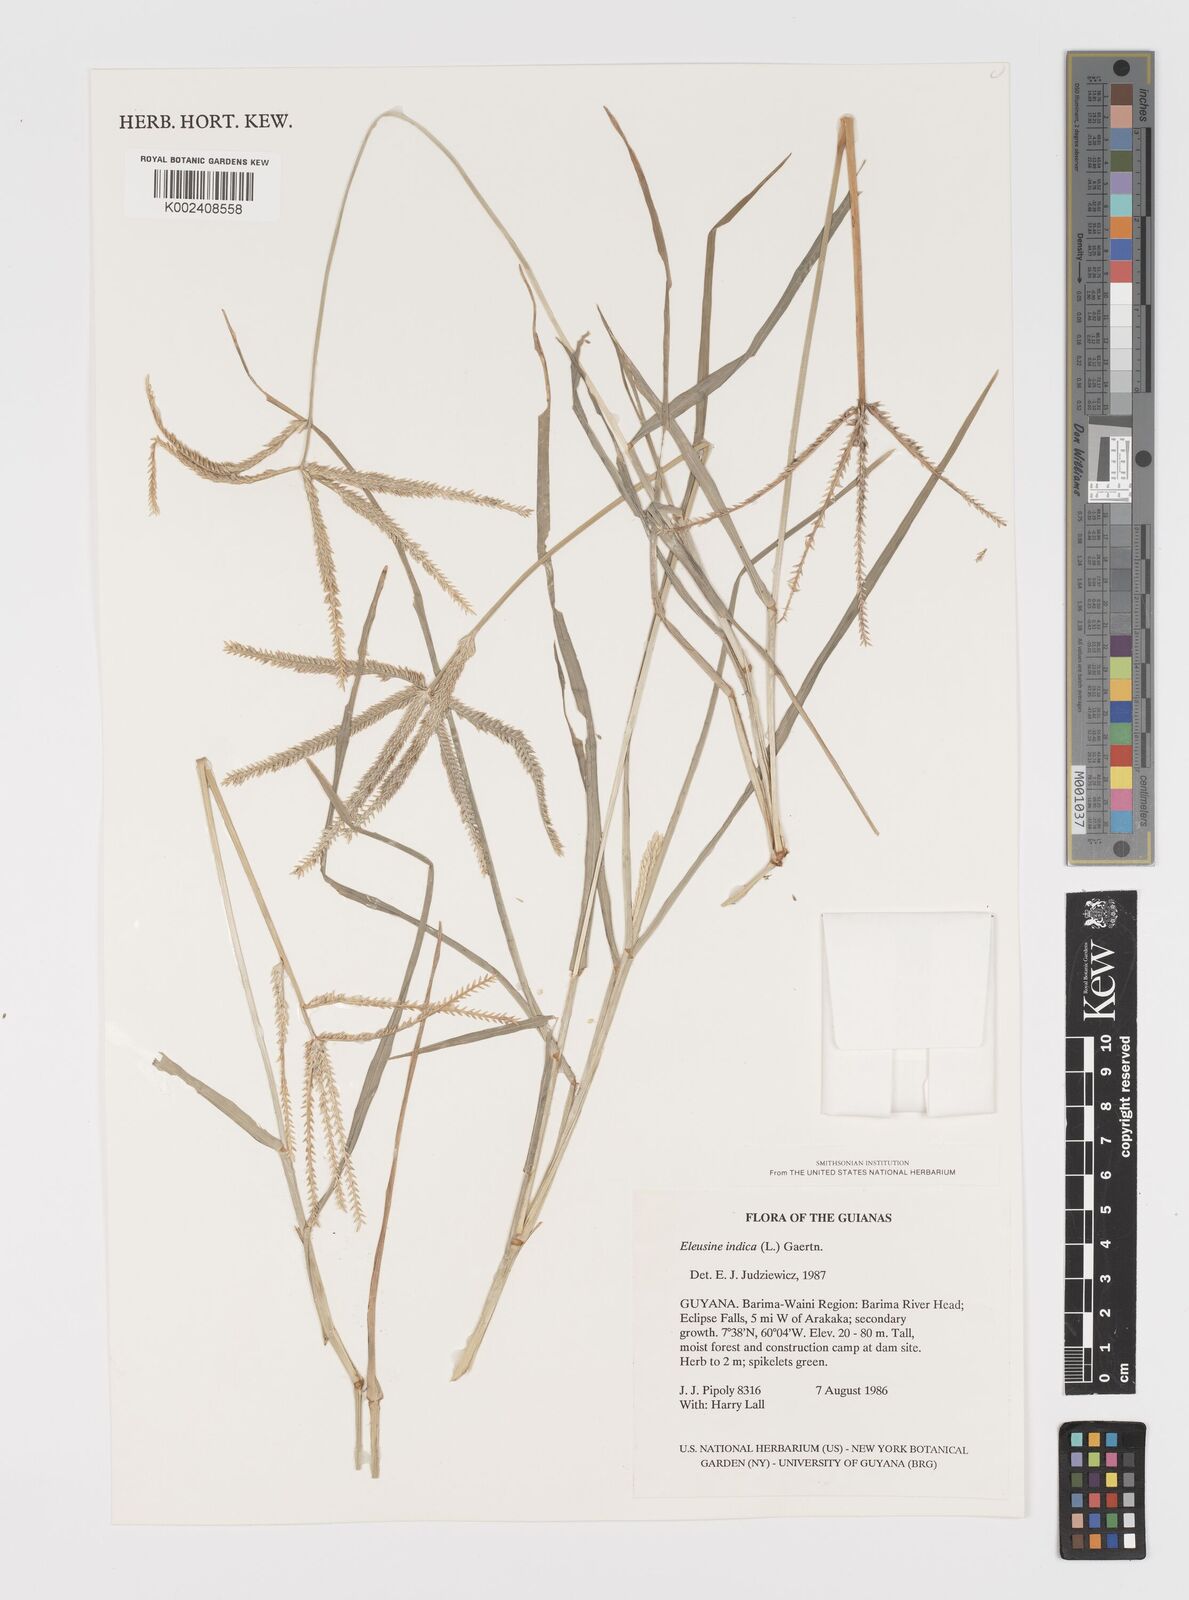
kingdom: Plantae
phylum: Tracheophyta
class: Liliopsida
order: Poales
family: Poaceae
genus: Eleusine
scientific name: Eleusine indica
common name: Yard-grass
